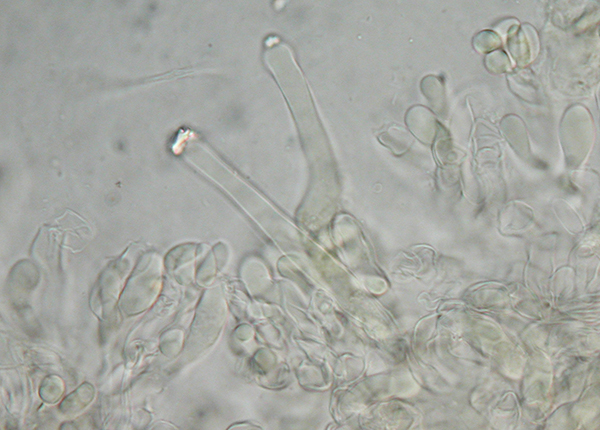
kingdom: Fungi
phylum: Basidiomycota
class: Agaricomycetes
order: Hymenochaetales
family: Rickenellaceae
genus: Peniophorella
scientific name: Peniophorella praetermissa
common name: almindelig kalkskind
